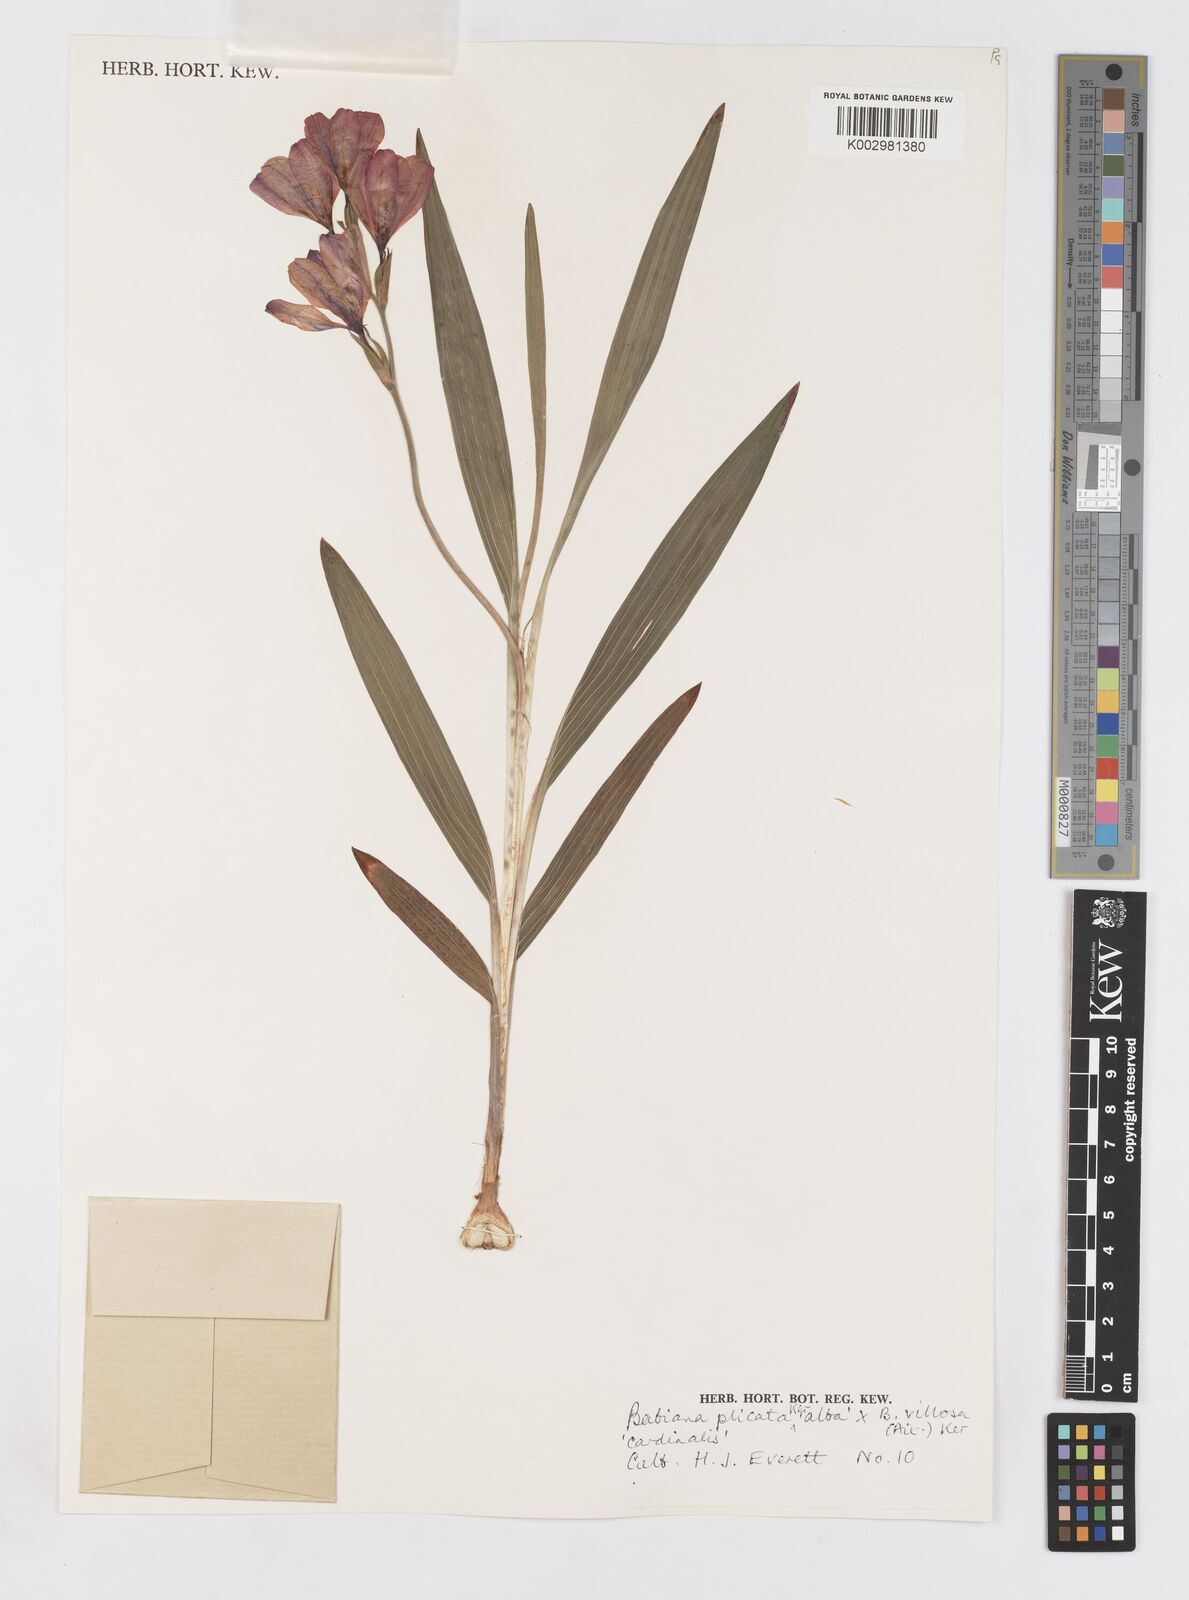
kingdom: Plantae
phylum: Tracheophyta
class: Liliopsida
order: Asparagales
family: Iridaceae
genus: Babiana
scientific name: Babiana fragrans
